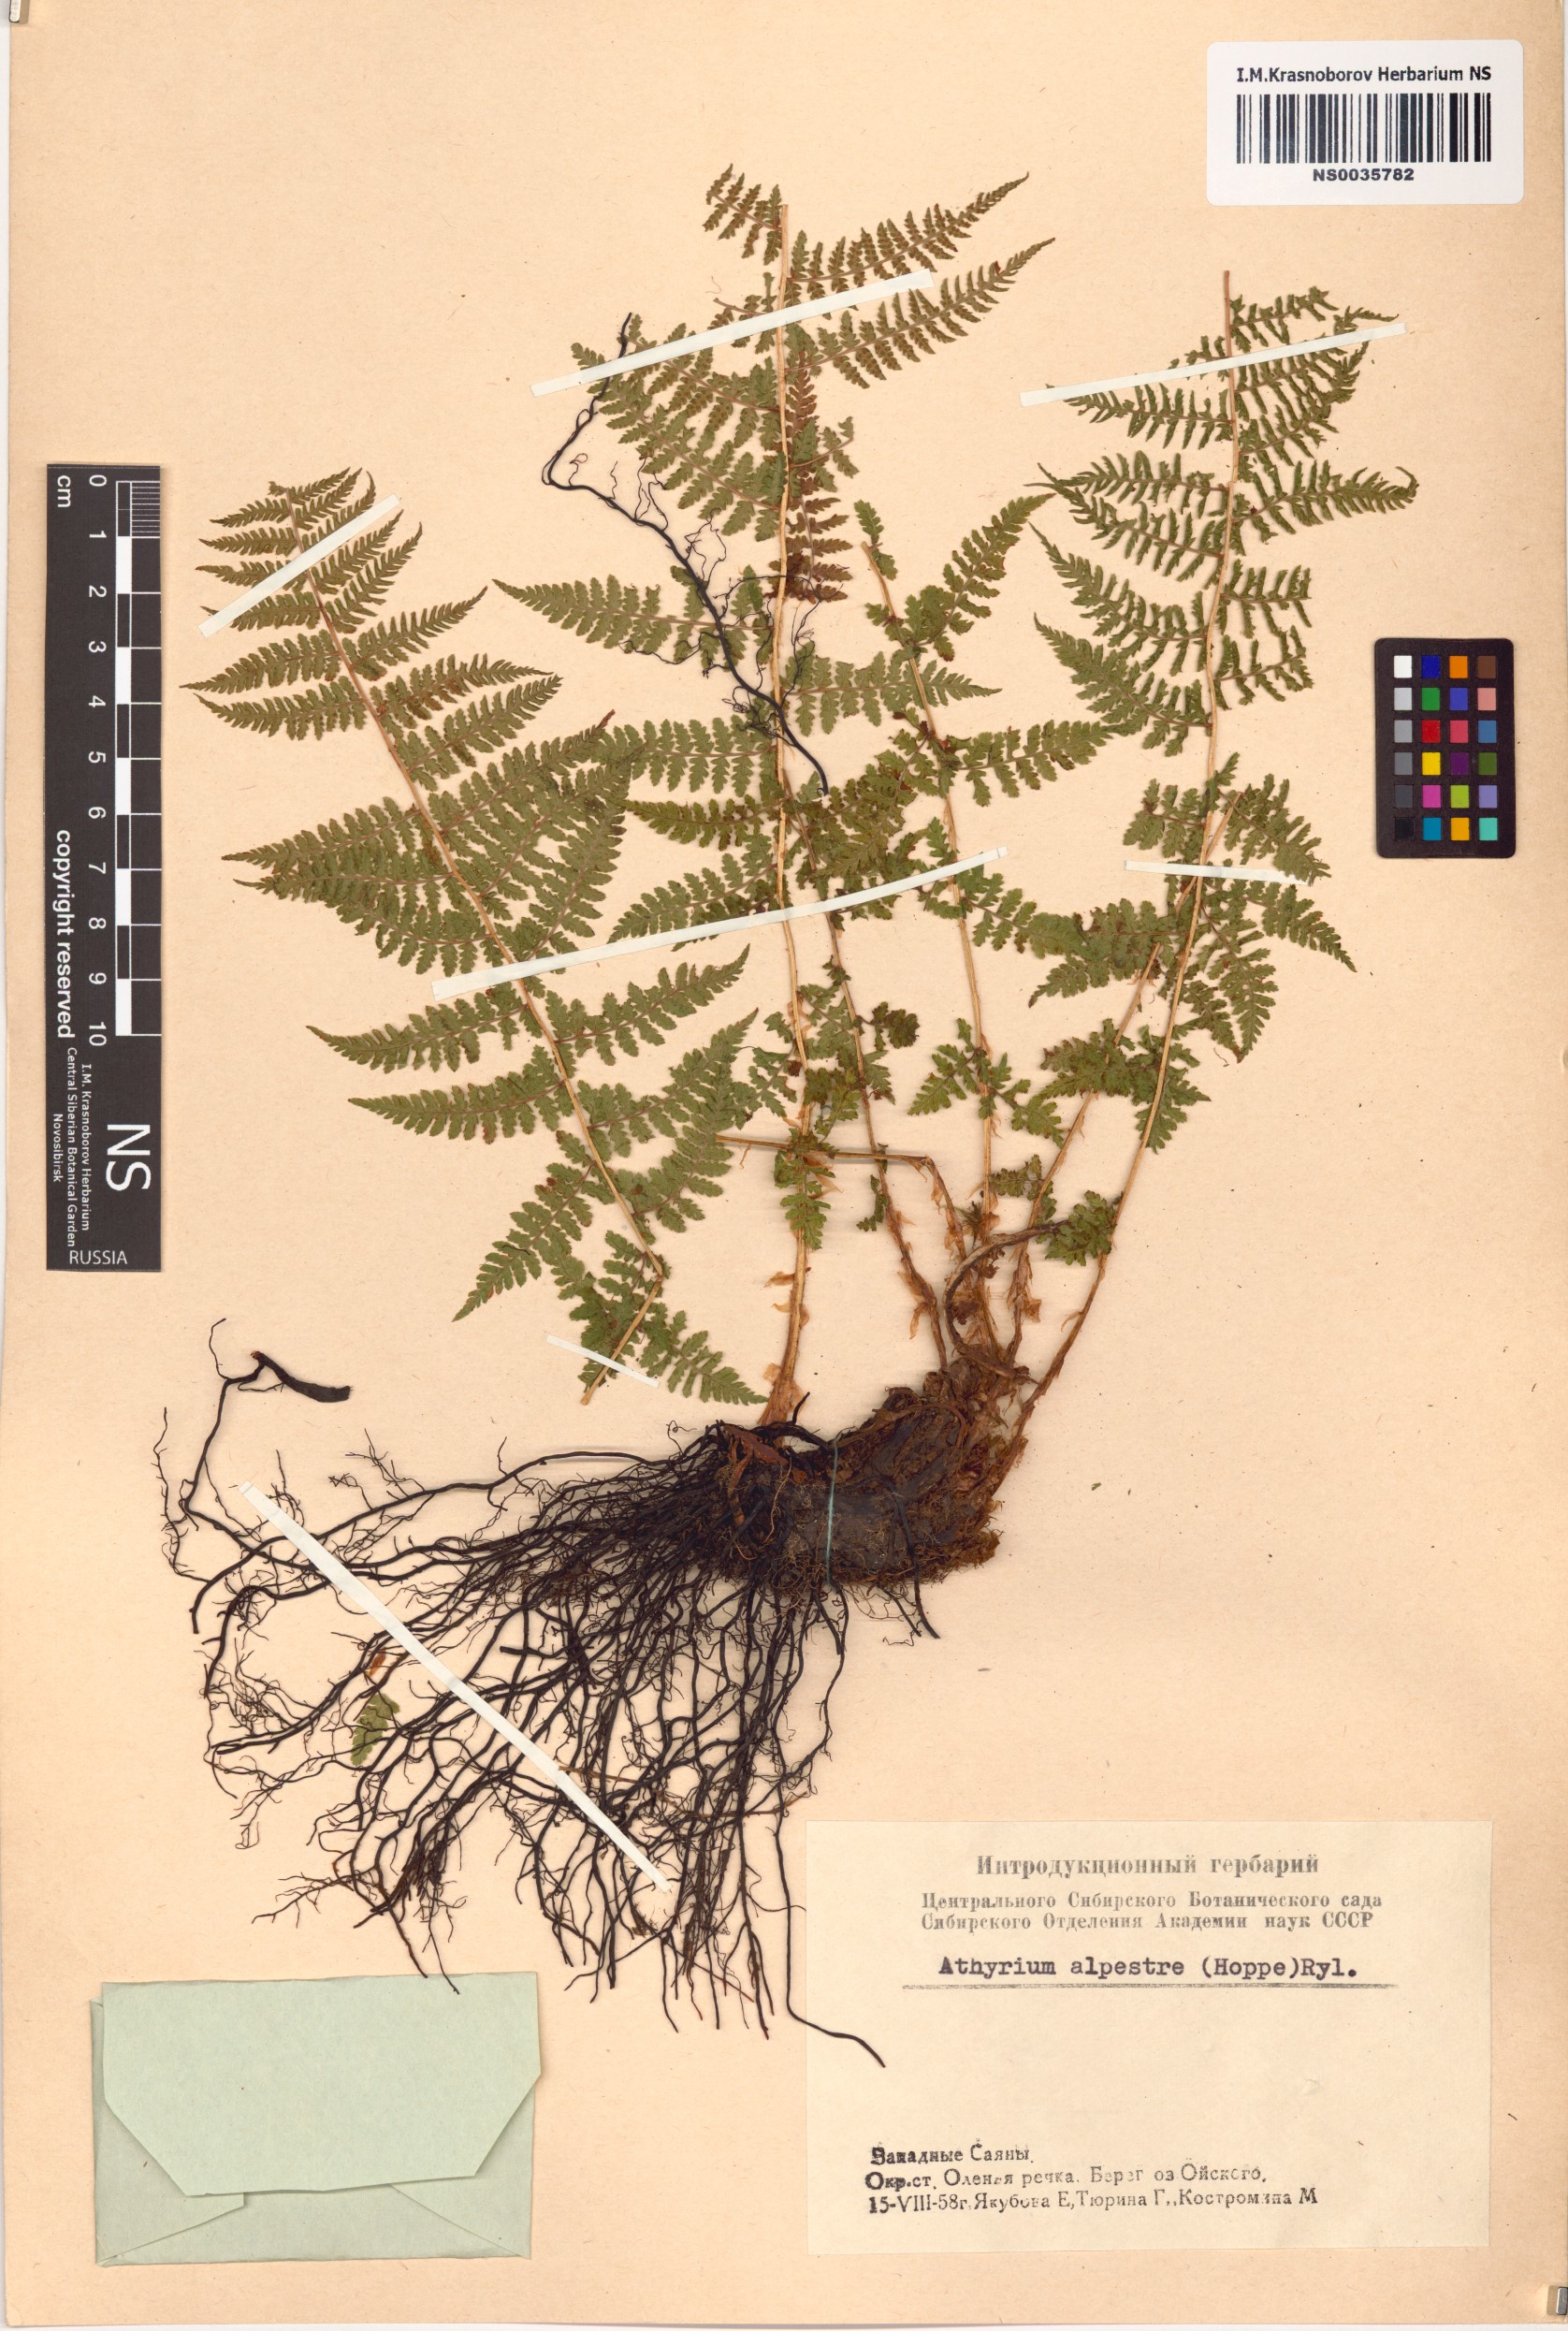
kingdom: Plantae
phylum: Tracheophyta
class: Polypodiopsida
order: Polypodiales
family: Athyriaceae
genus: Pseudathyrium
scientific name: Pseudathyrium alpestre
